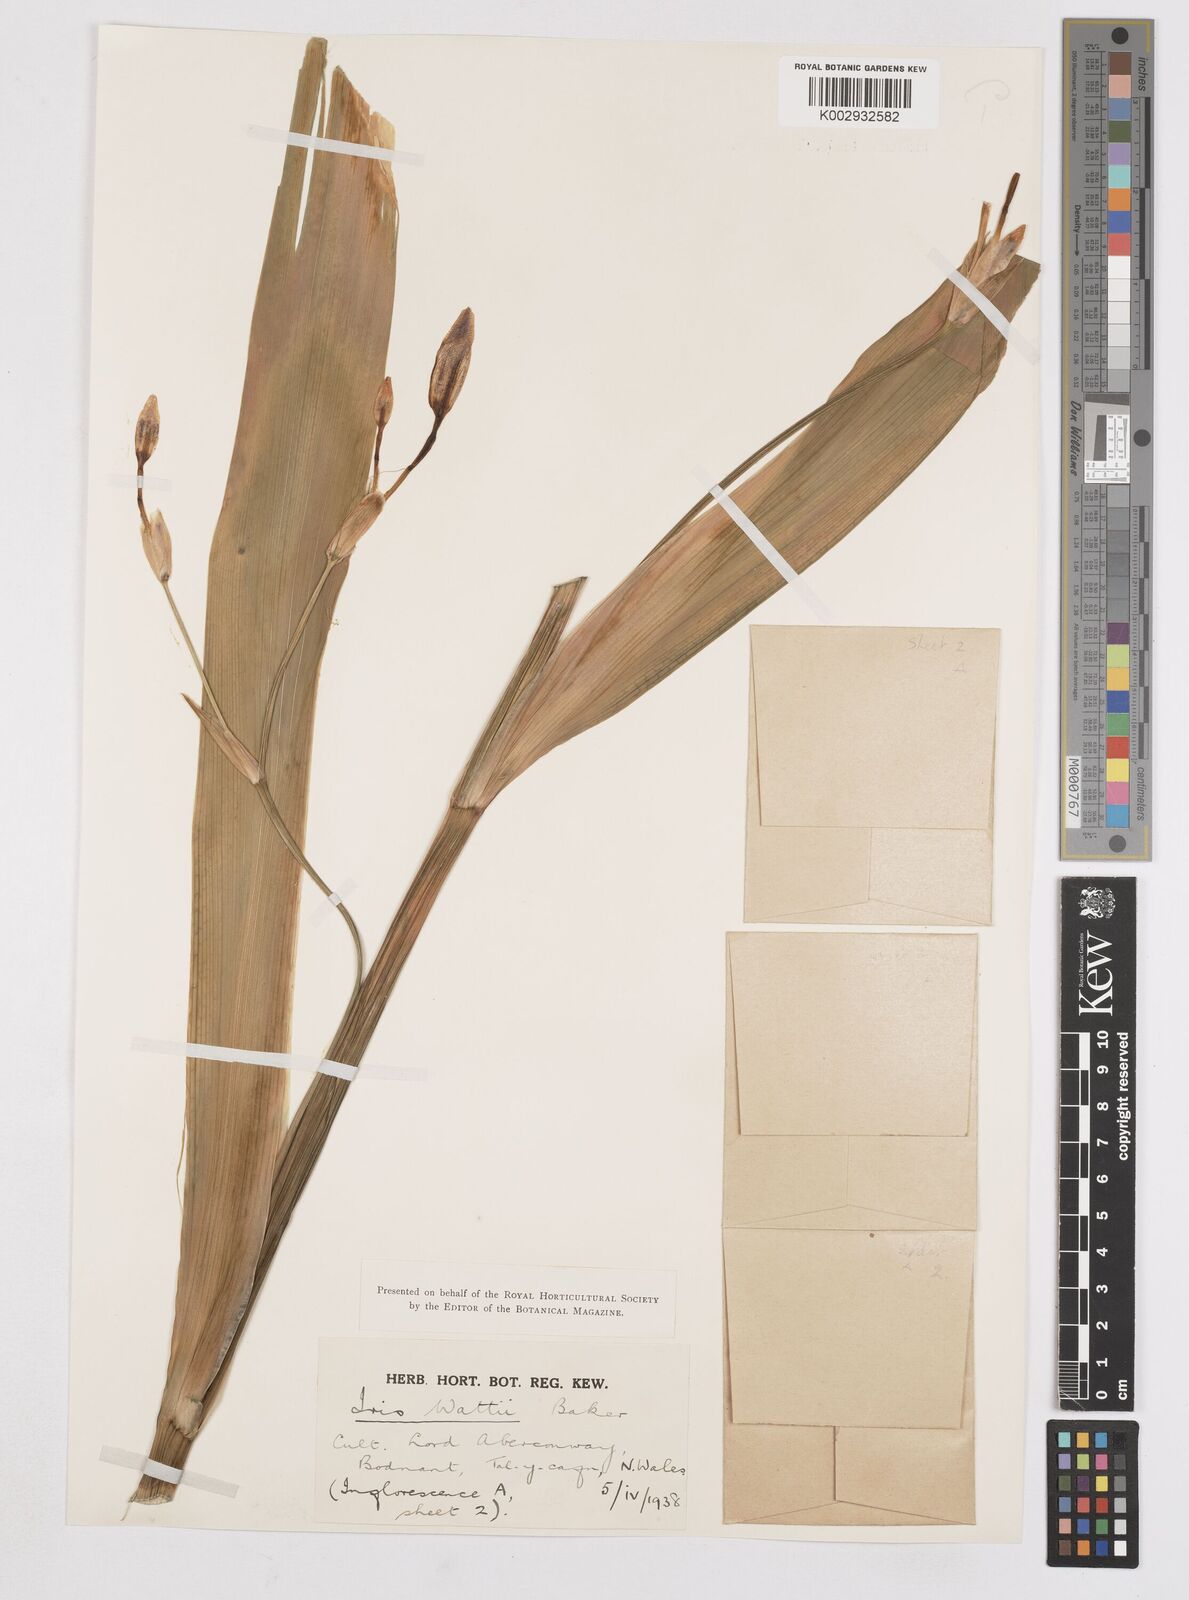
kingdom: Plantae
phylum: Tracheophyta
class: Liliopsida
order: Asparagales
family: Iridaceae
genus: Iris
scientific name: Iris wattii
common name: Fan-shape iris
